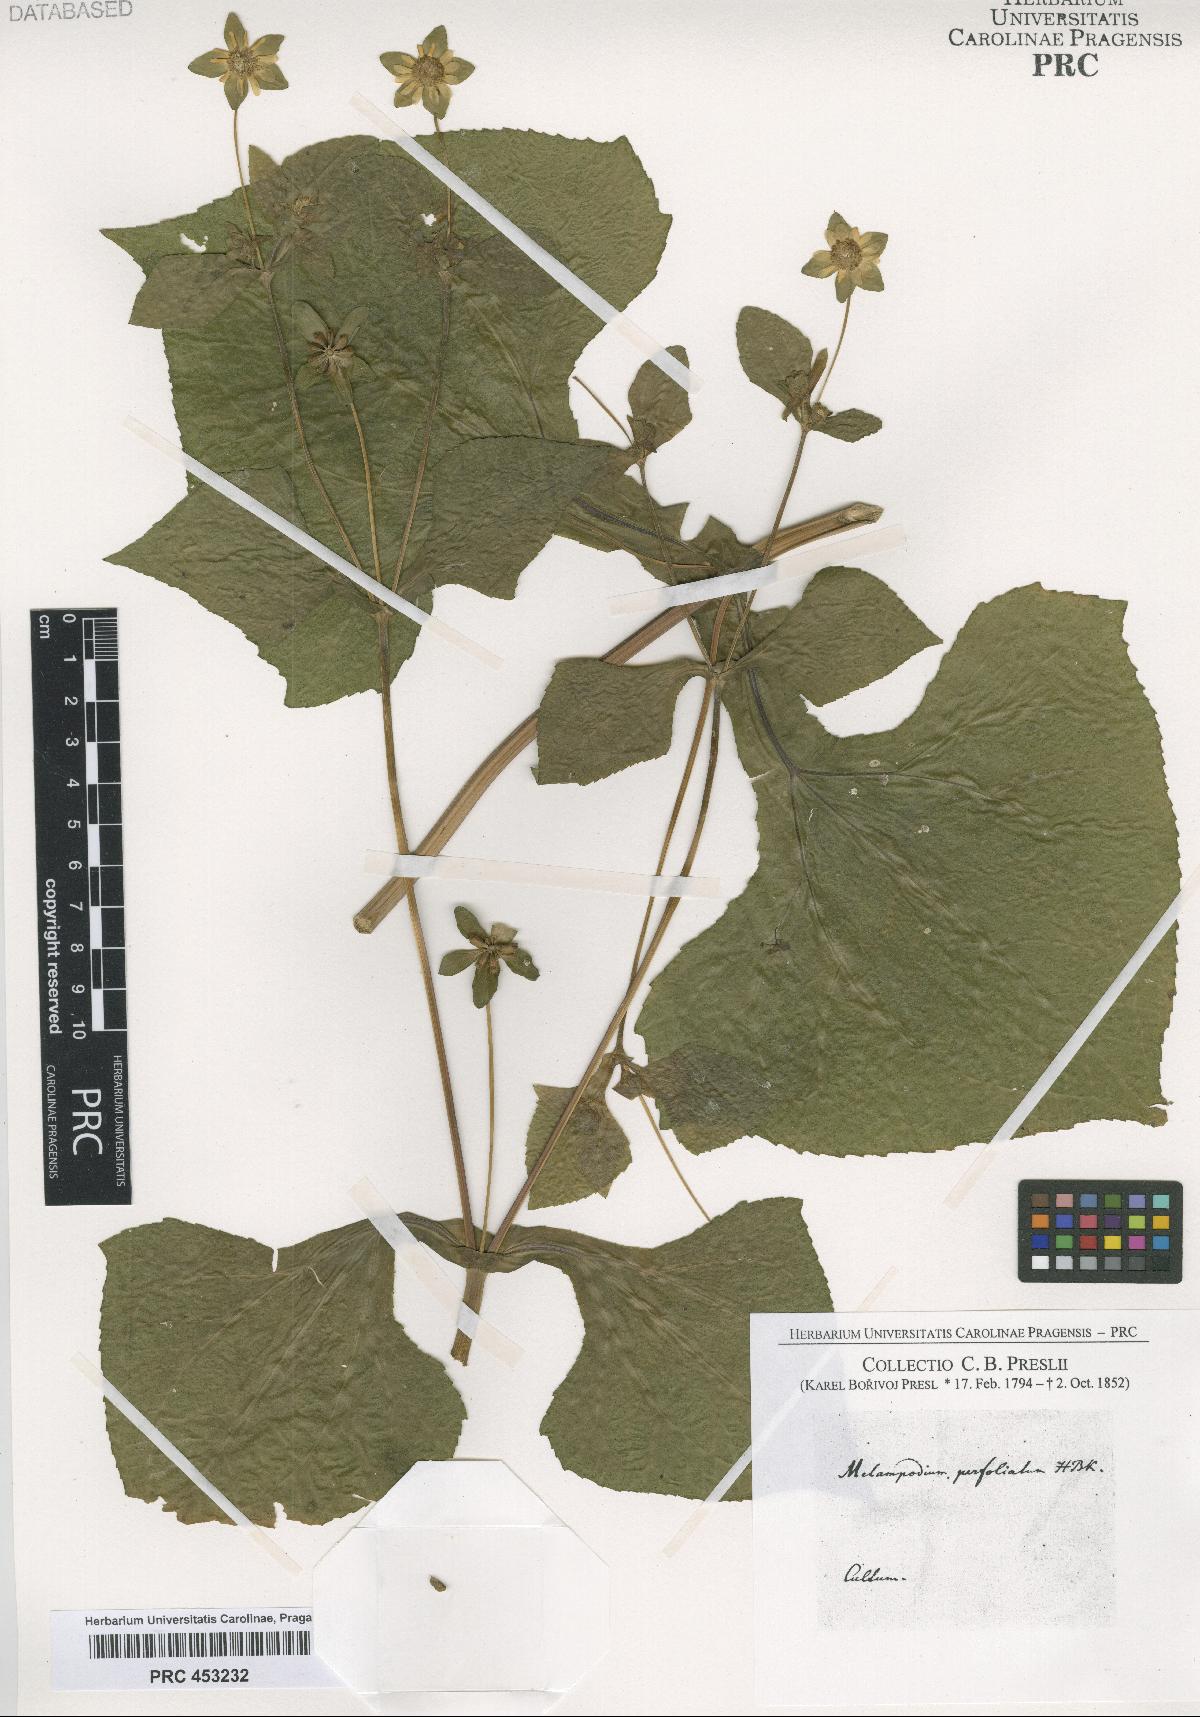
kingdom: Plantae
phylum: Tracheophyta
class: Magnoliopsida
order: Asterales
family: Asteraceae
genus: Melampodium
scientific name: Melampodium perfoliatum
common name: Perfoliate blackfoot
